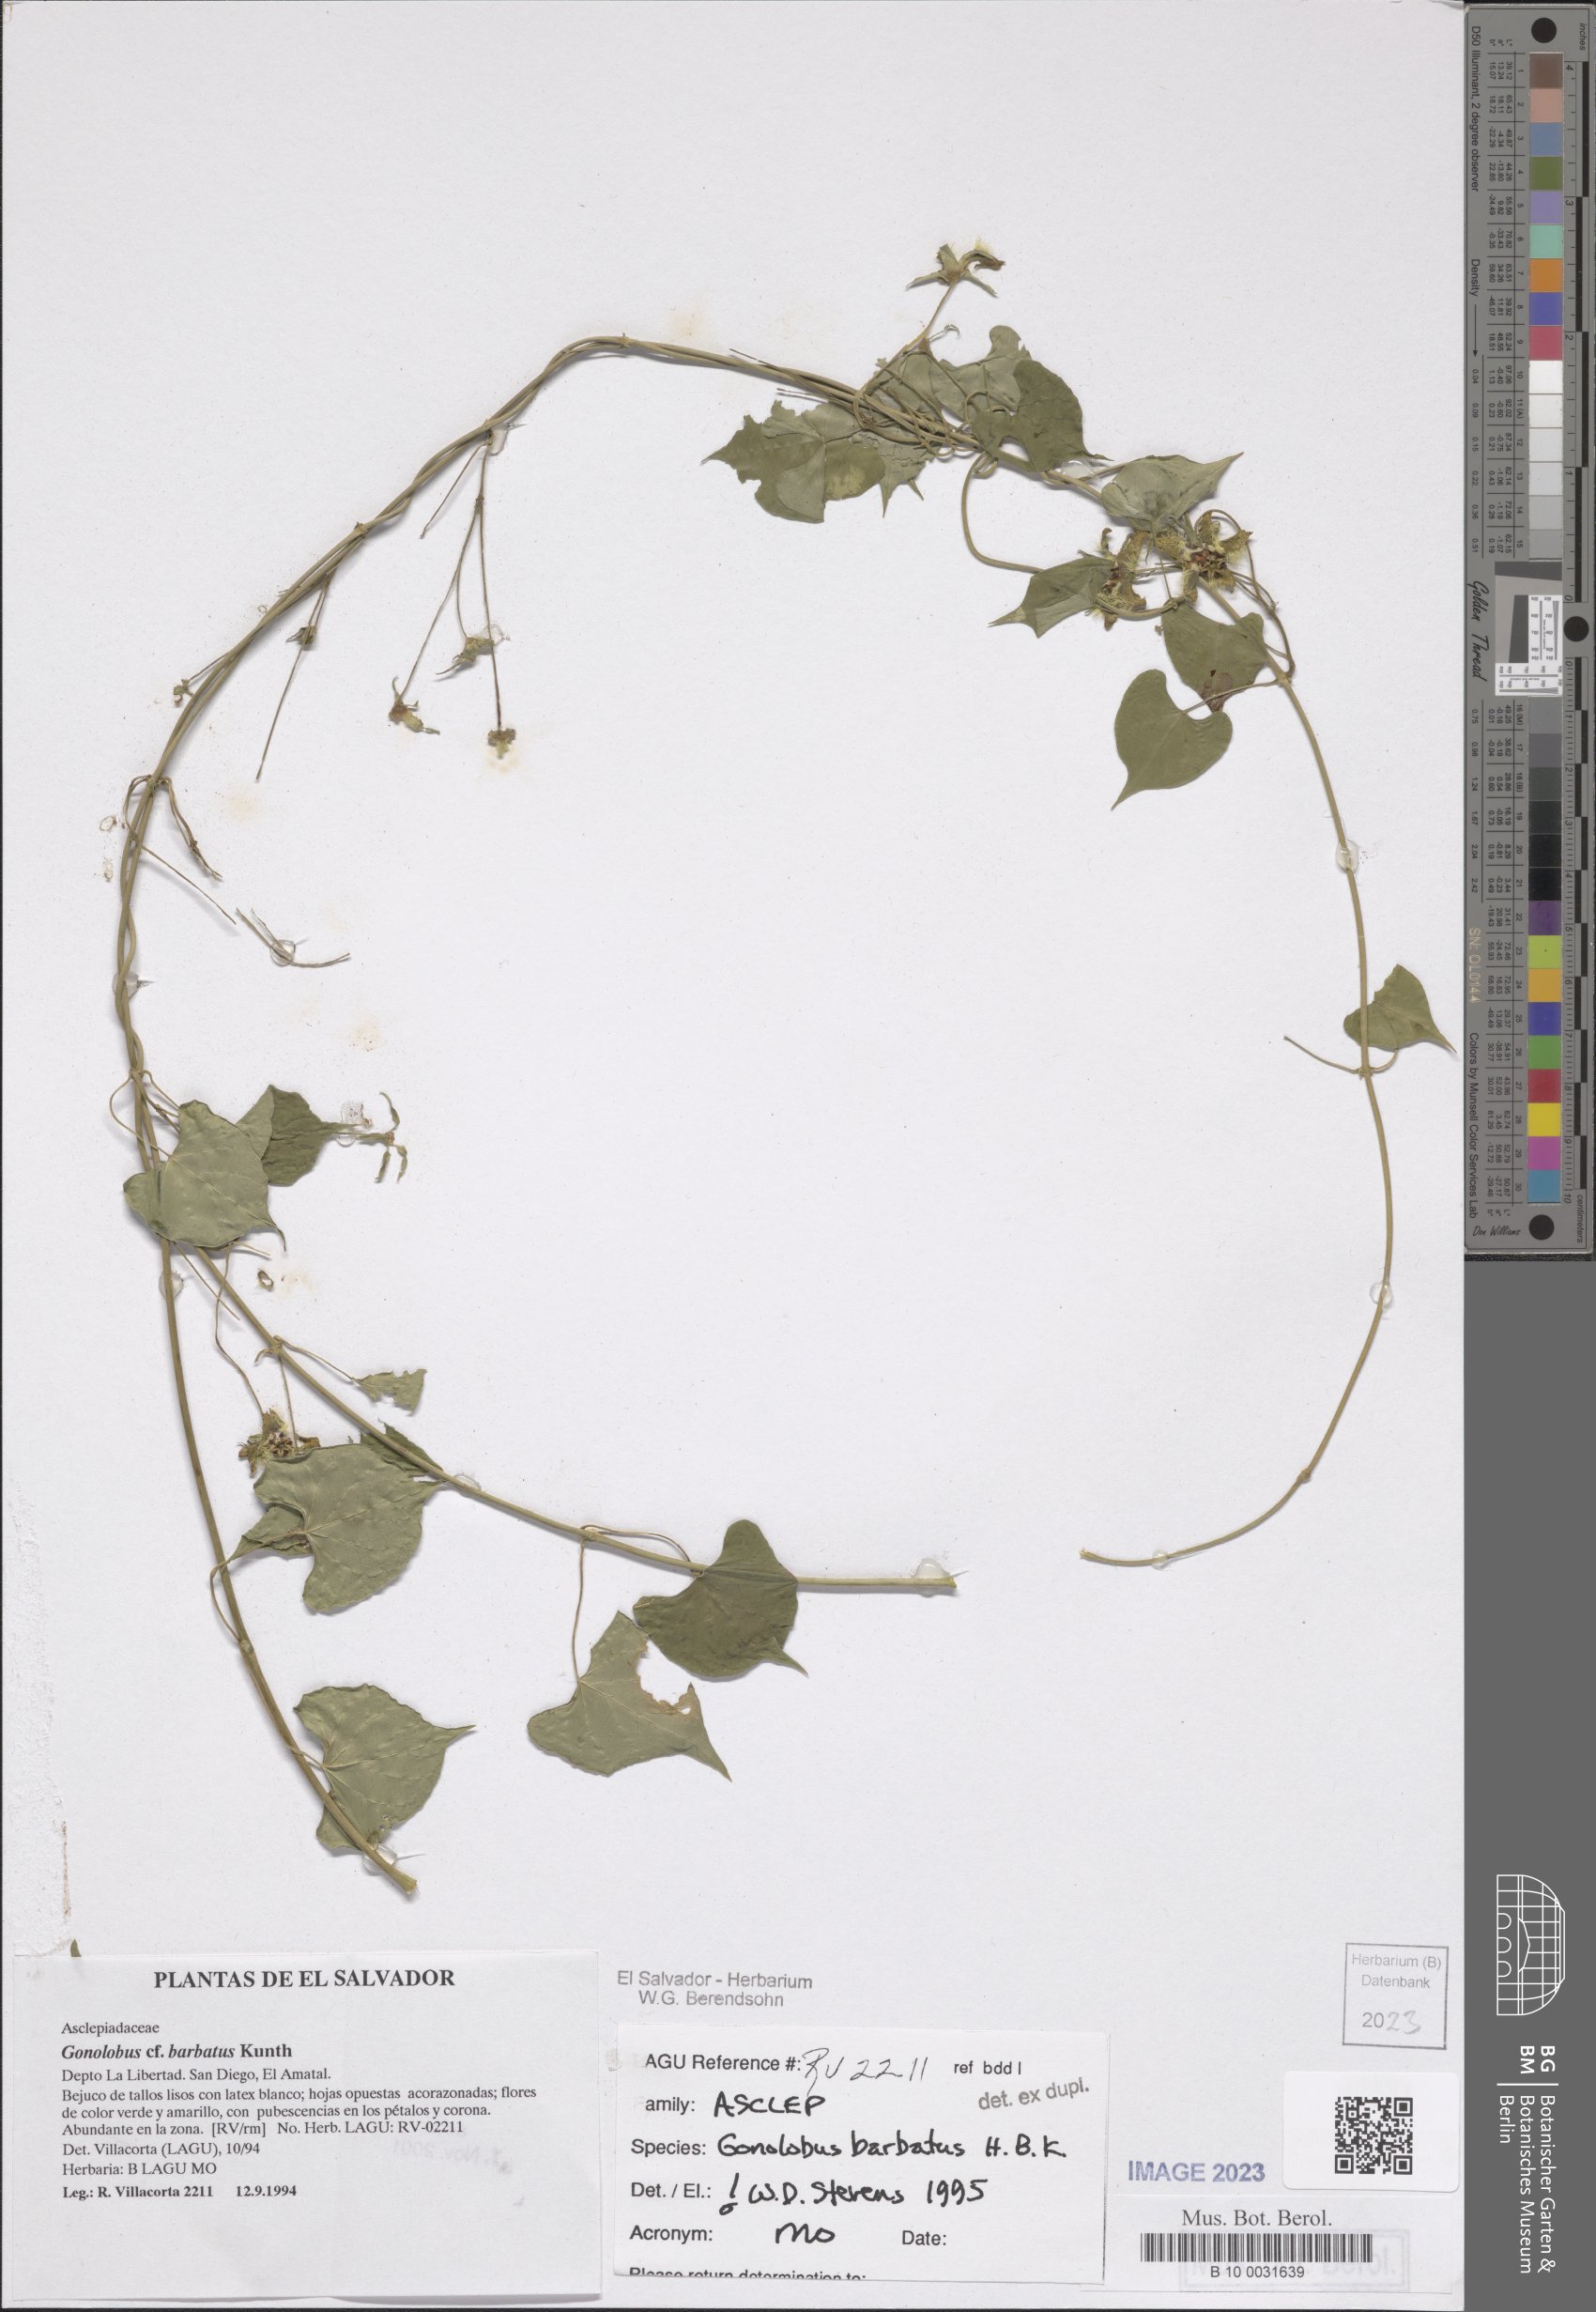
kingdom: Plantae
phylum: Tracheophyta
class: Magnoliopsida
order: Gentianales
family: Apocynaceae
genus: Gonolobus
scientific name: Gonolobus barbatus
